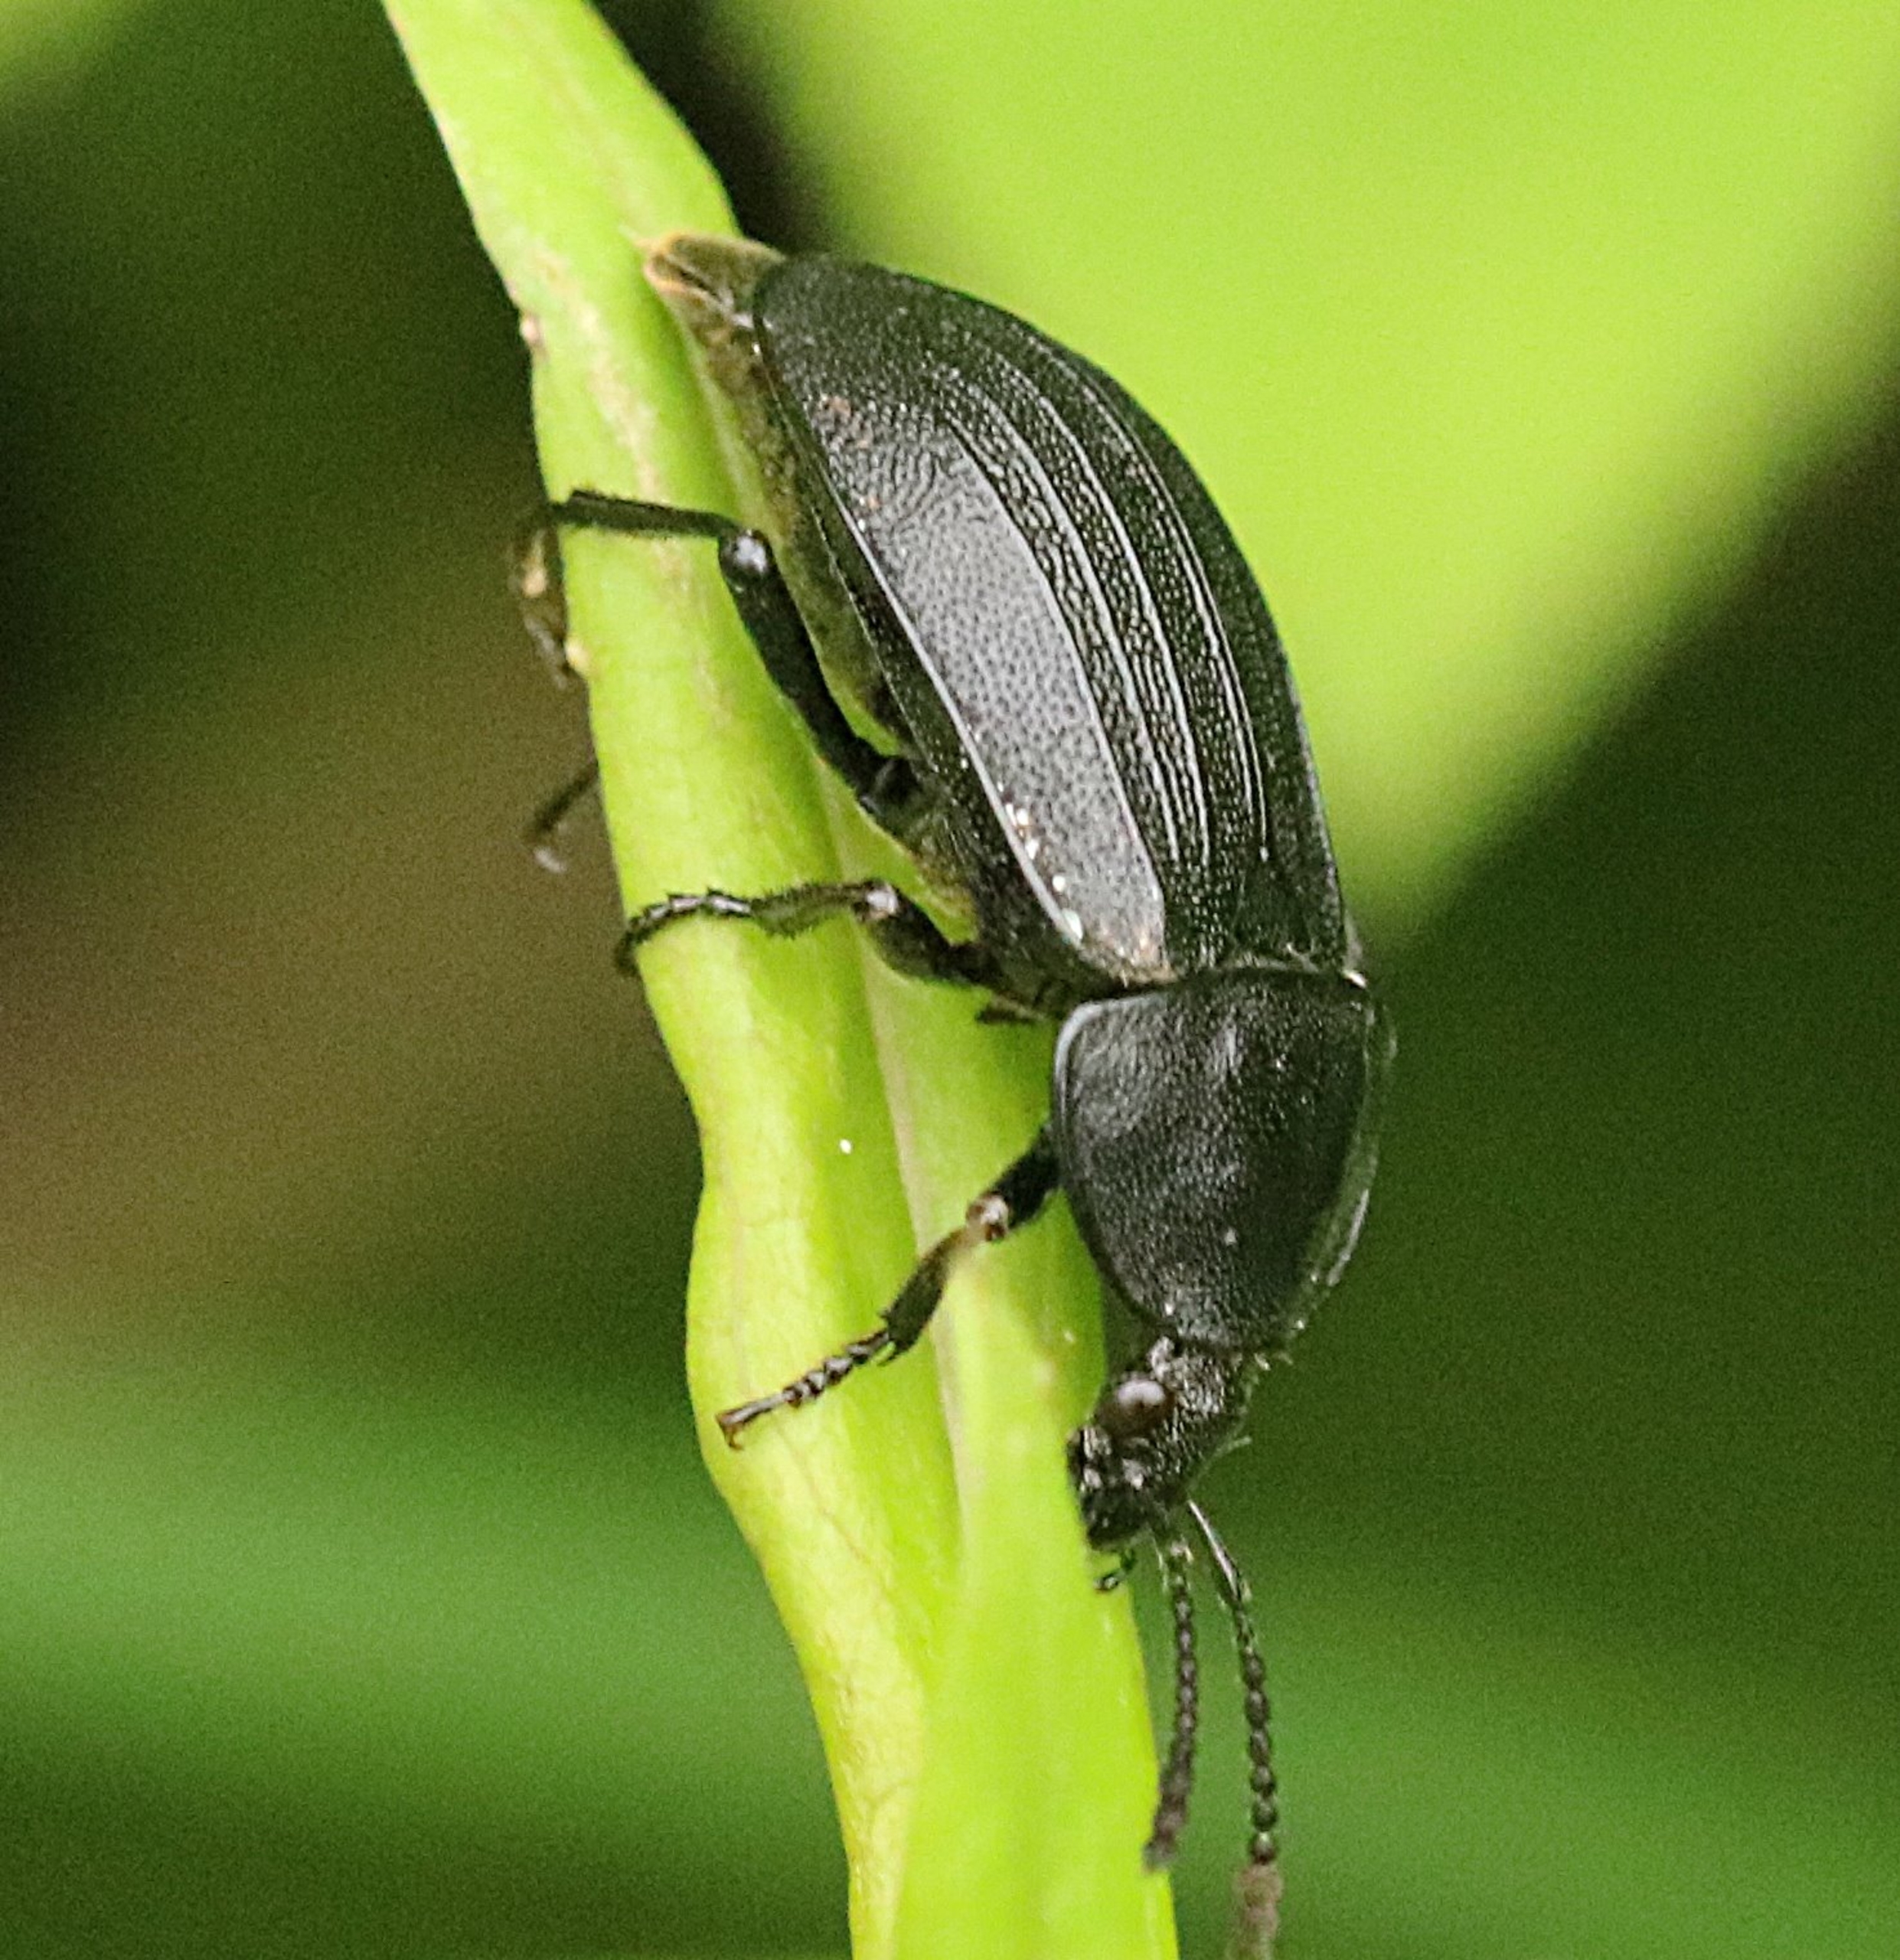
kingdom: Animalia
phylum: Arthropoda
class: Insecta
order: Coleoptera
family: Staphylinidae
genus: Silpha
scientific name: Silpha atrata
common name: Snegleådselbille
